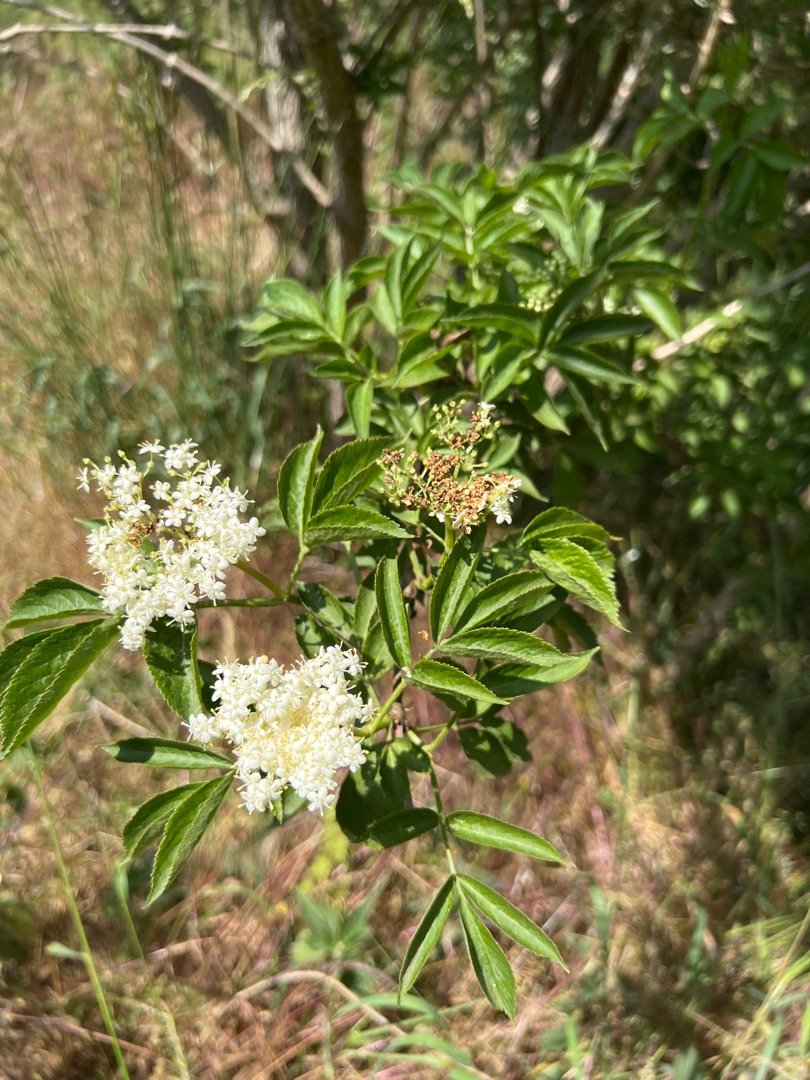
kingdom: Plantae
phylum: Tracheophyta
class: Magnoliopsida
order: Dipsacales
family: Viburnaceae
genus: Sambucus
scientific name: Sambucus nigra
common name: Almindelig hyld
